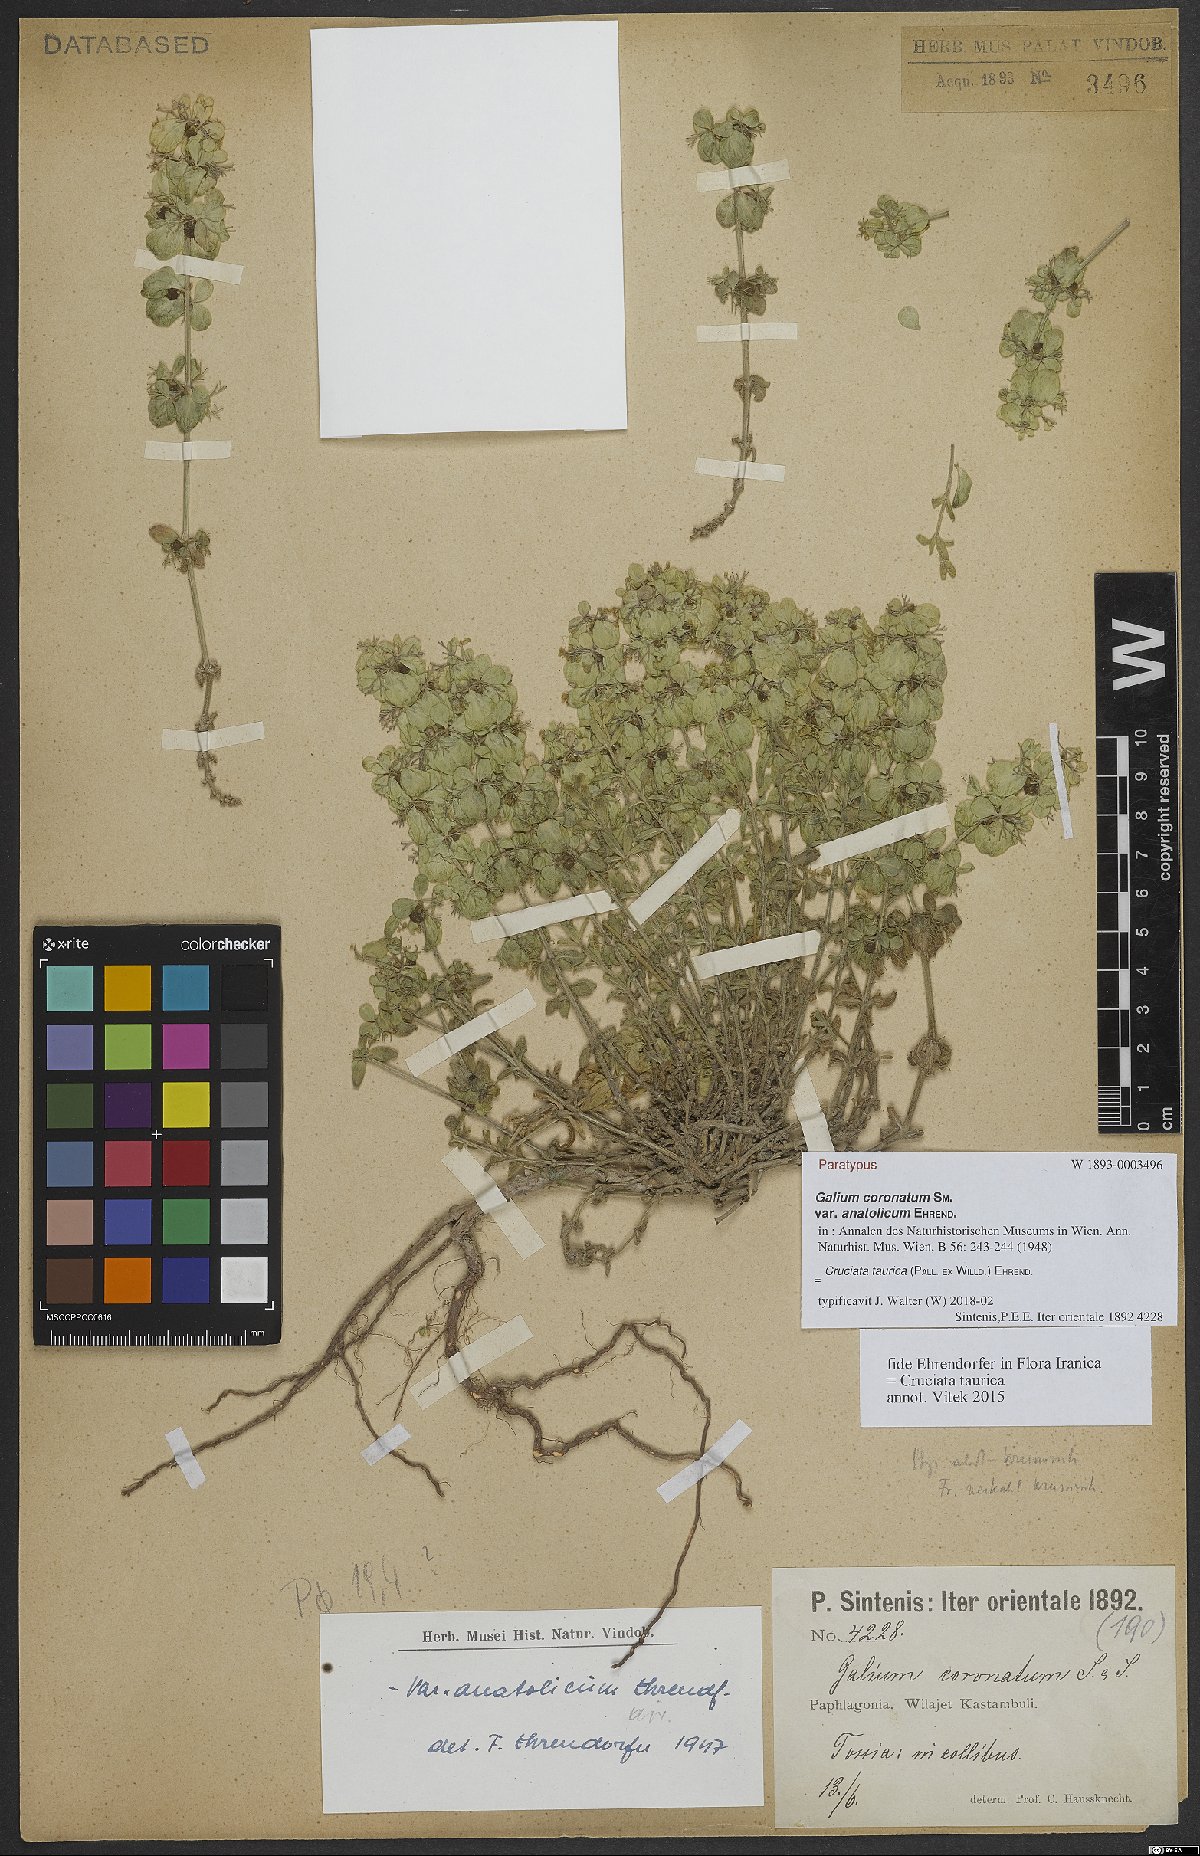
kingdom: Plantae
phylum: Tracheophyta
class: Magnoliopsida
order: Gentianales
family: Rubiaceae
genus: Cruciata
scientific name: Cruciata taurica
